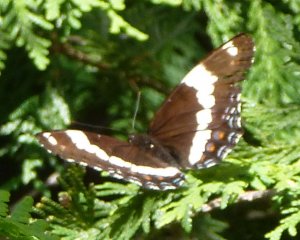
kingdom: Animalia
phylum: Arthropoda
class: Insecta
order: Lepidoptera
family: Nymphalidae
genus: Limenitis
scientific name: Limenitis arthemis
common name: Red-spotted Admiral
